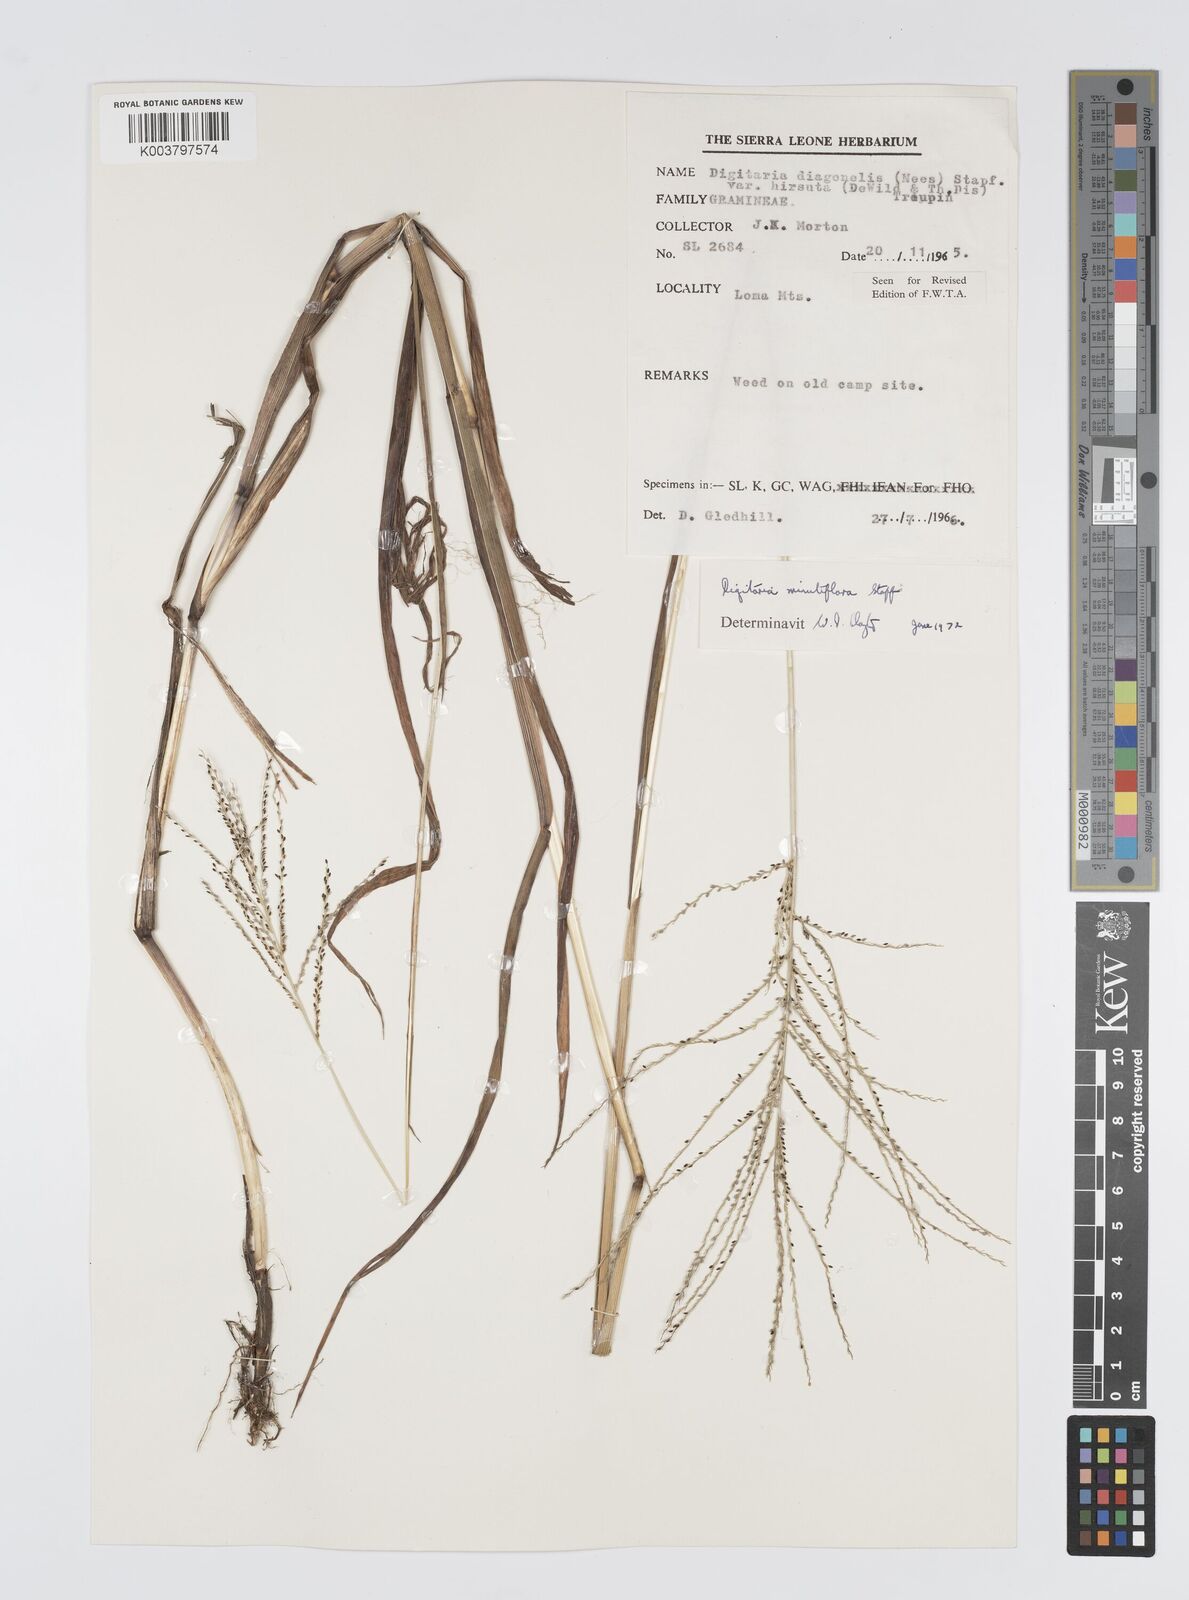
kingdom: Plantae
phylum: Tracheophyta
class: Liliopsida
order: Poales
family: Poaceae
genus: Digitaria
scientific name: Digitaria pseudodiagonalis
